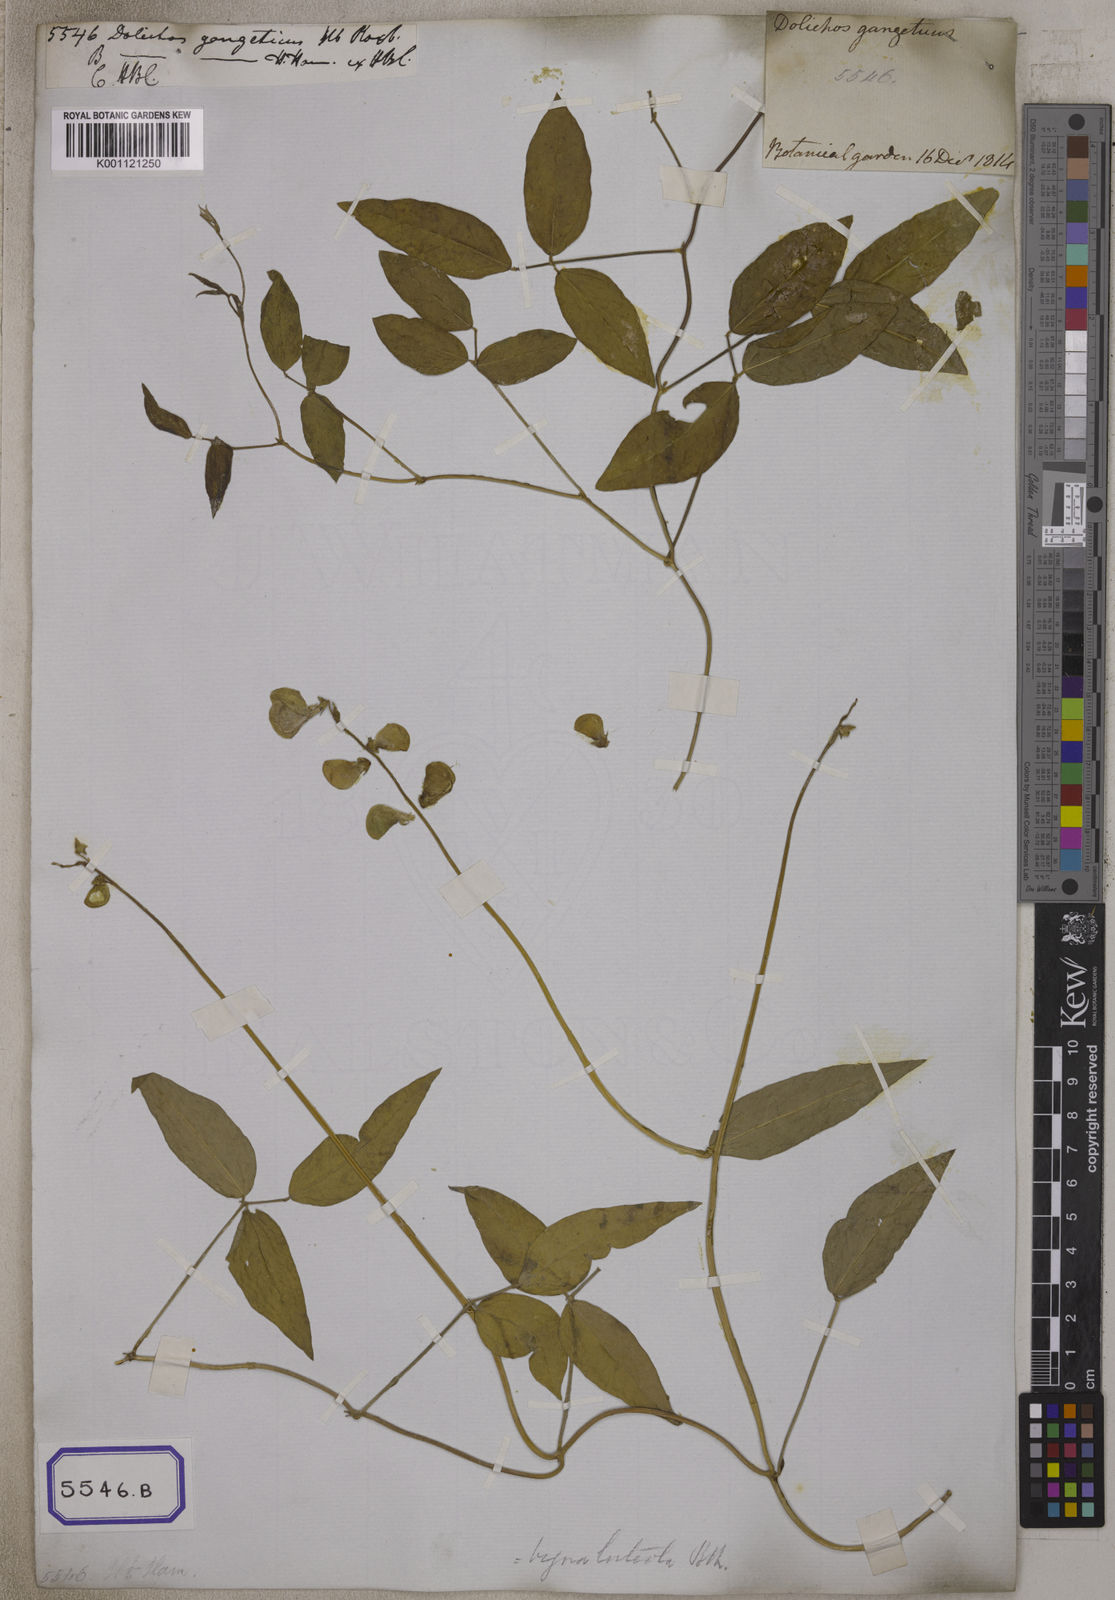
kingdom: Plantae
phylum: Tracheophyta
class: Magnoliopsida
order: Fabales
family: Fabaceae
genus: Vigna
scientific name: Vigna luteola
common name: Hairypod cowpea
